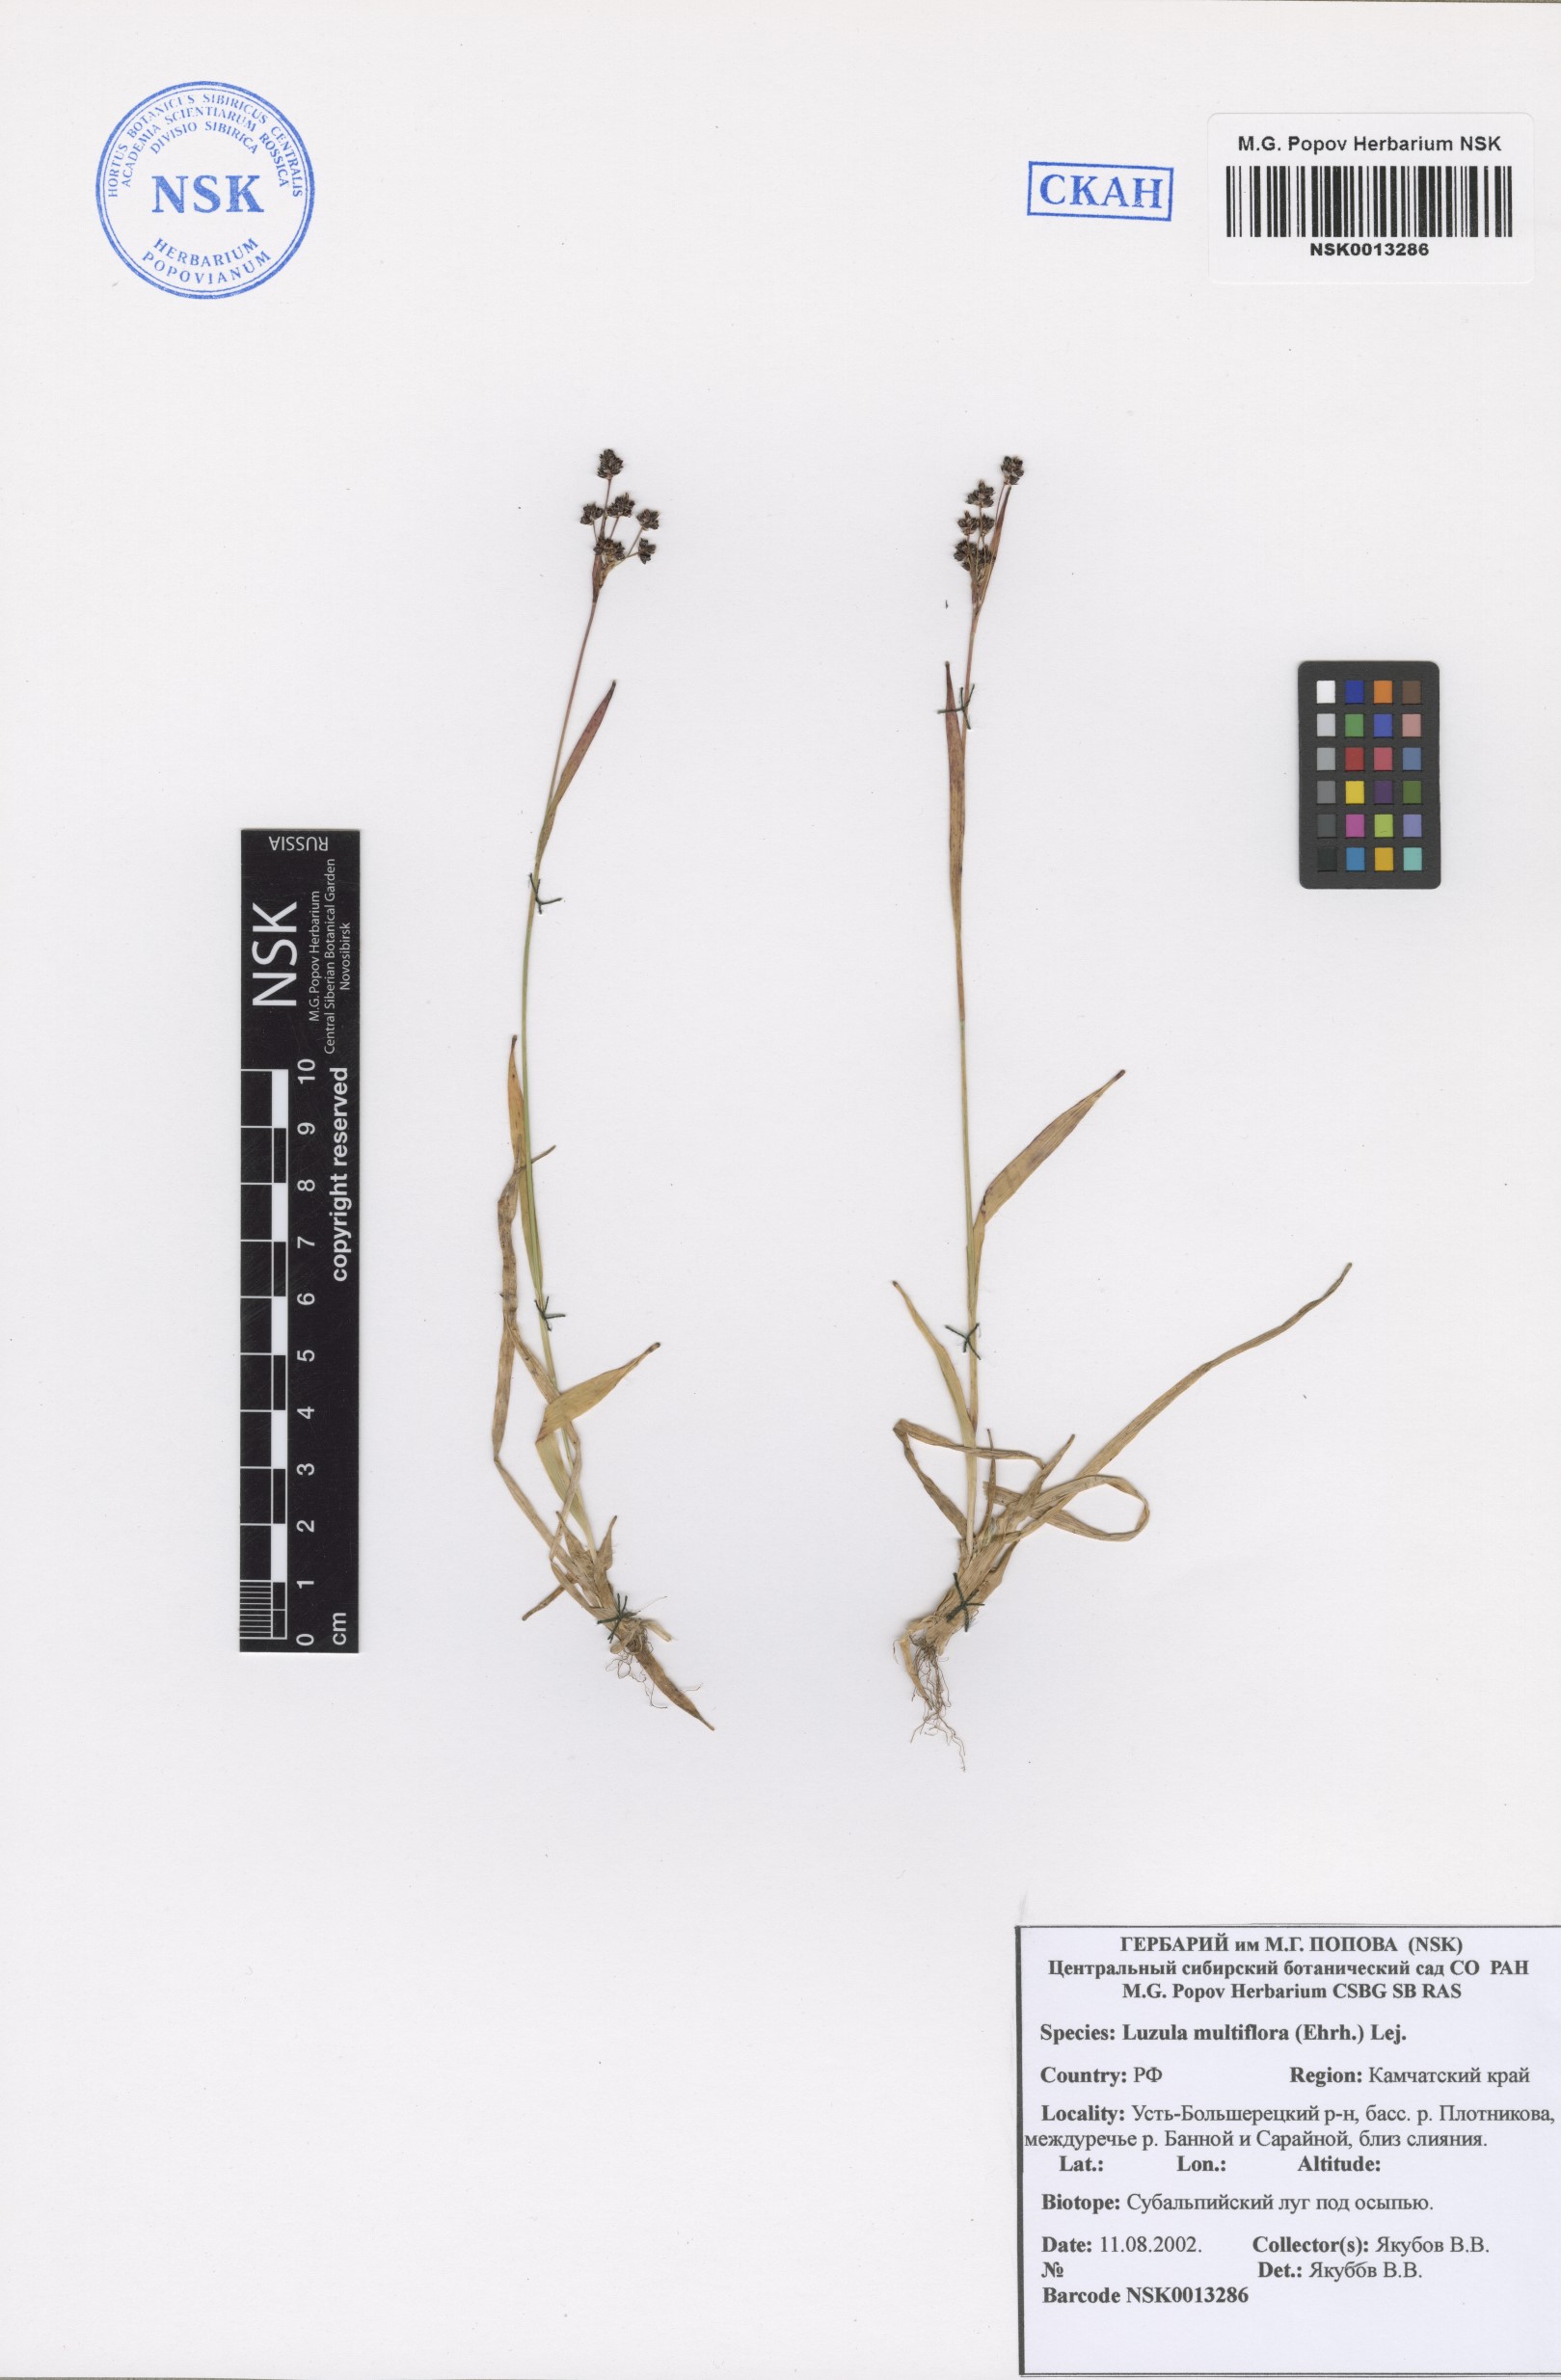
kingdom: Plantae
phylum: Tracheophyta
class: Liliopsida
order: Poales
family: Juncaceae
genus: Luzula
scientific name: Luzula multiflora
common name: Heath wood-rush
